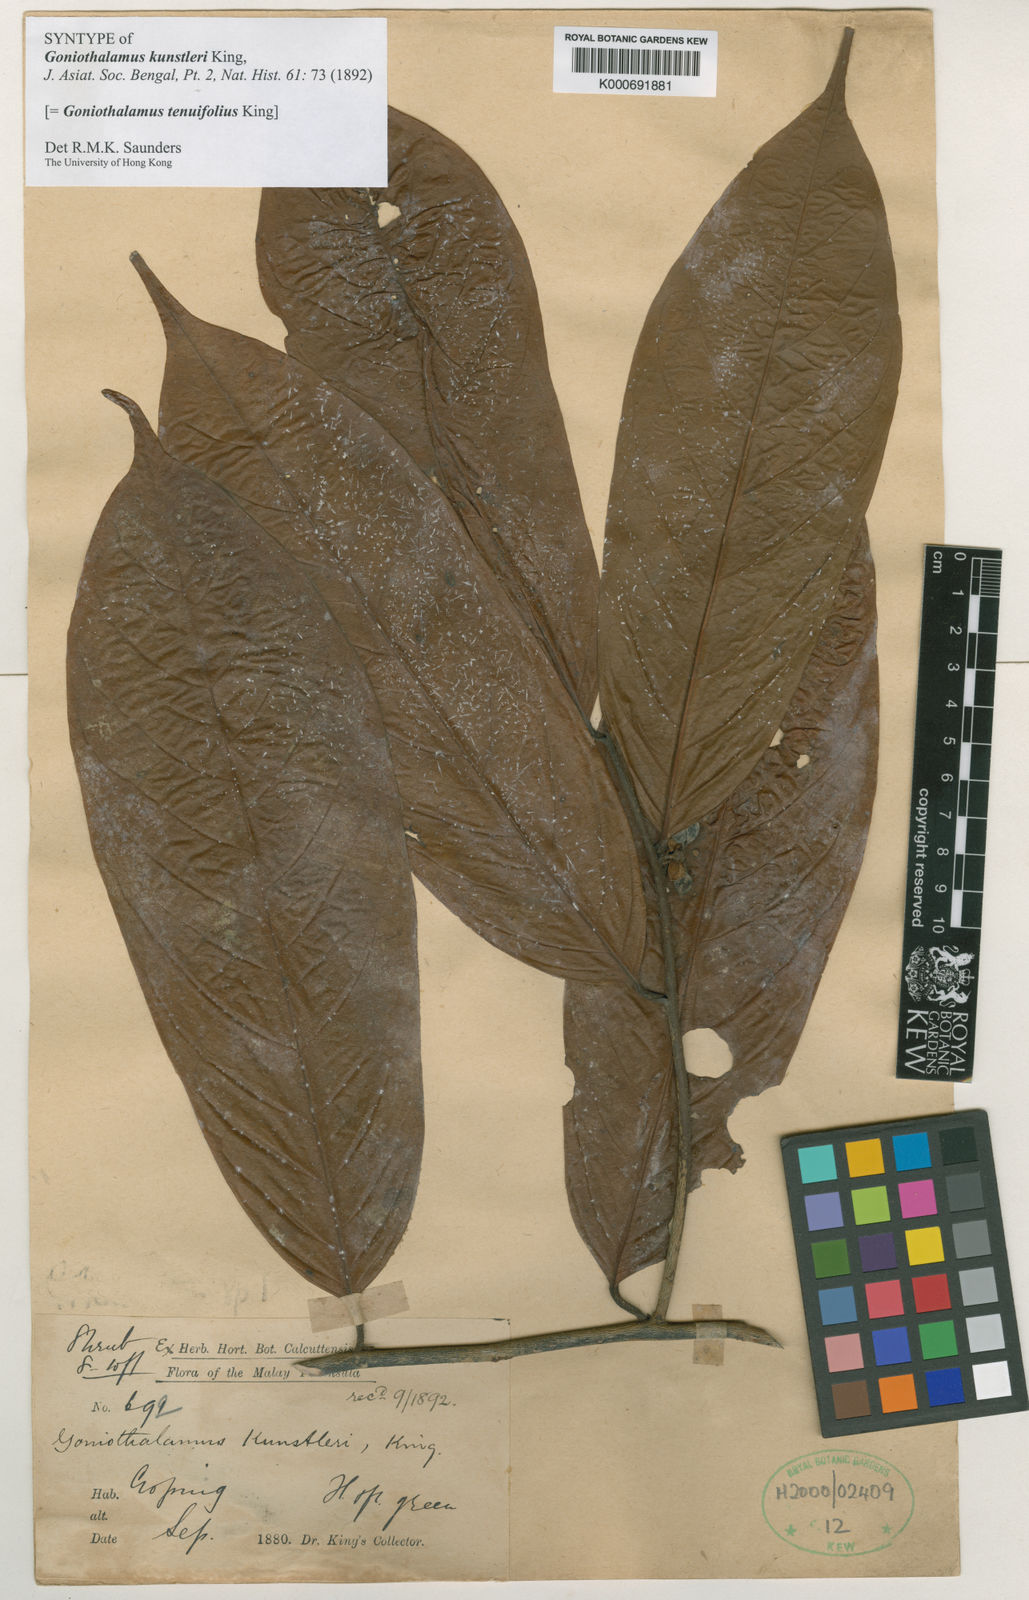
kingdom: Plantae
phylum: Tracheophyta
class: Magnoliopsida
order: Magnoliales
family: Annonaceae
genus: Goniothalamus
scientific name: Goniothalamus tenuifolius
